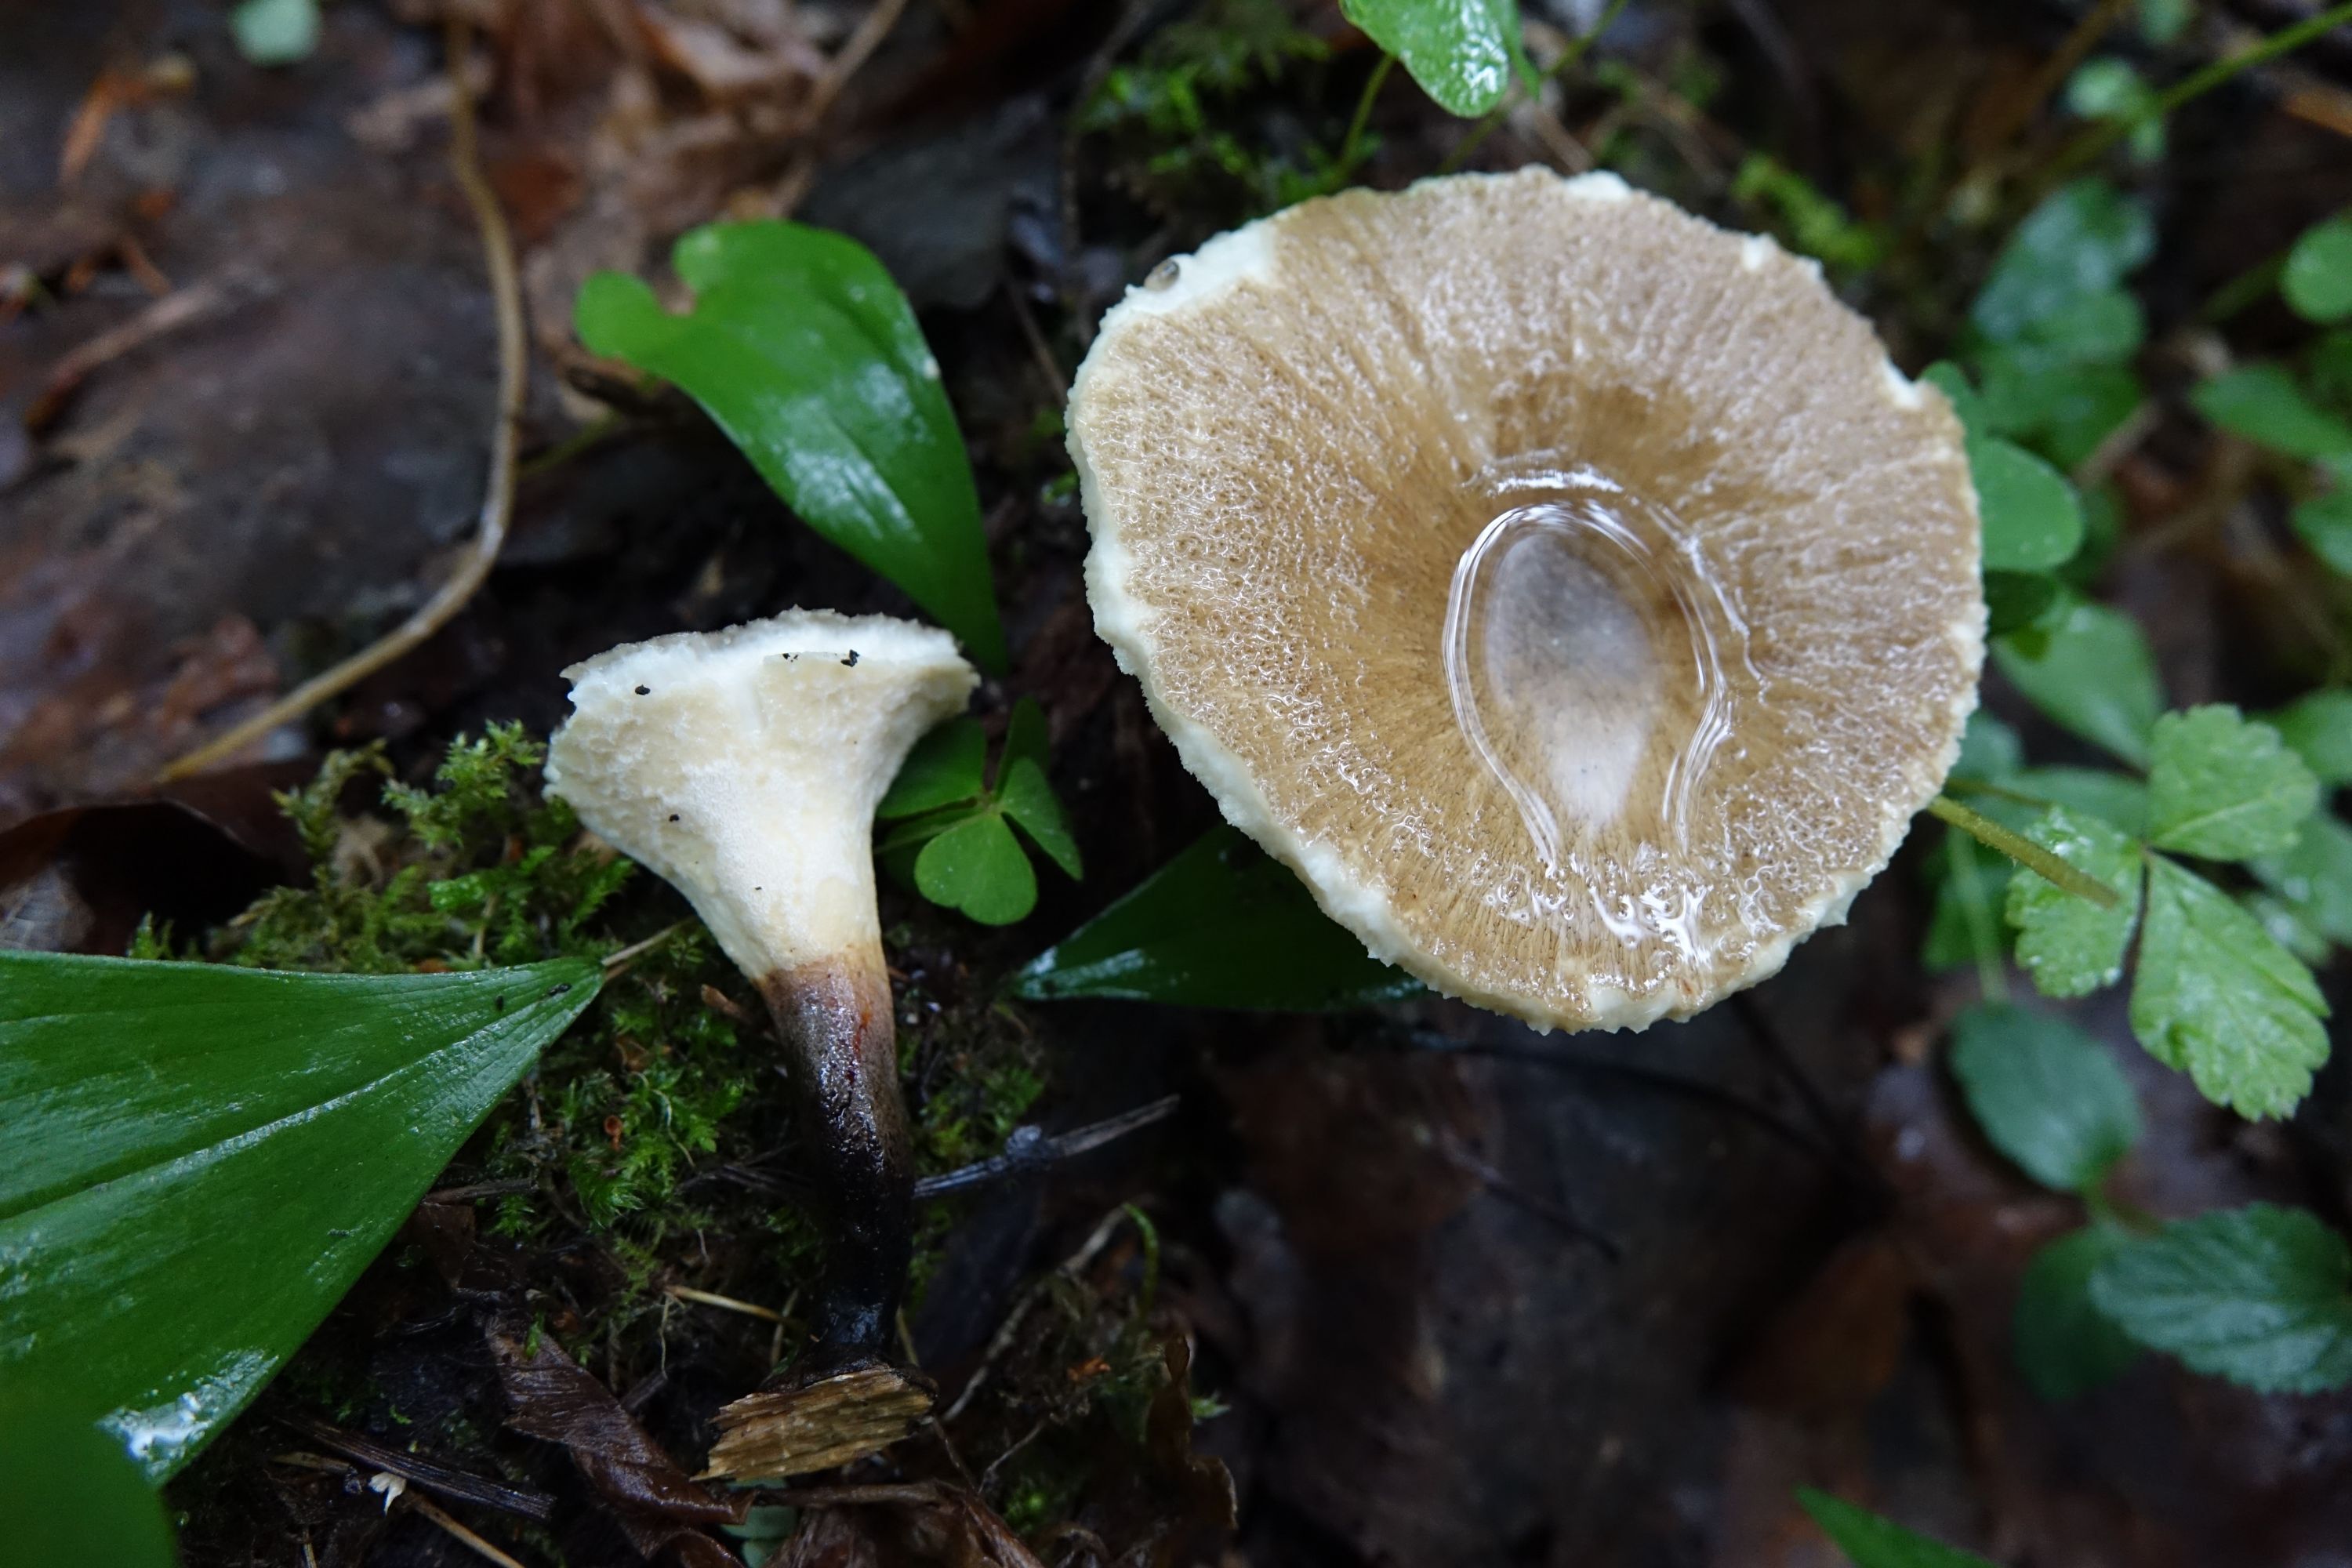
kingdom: Fungi
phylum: Basidiomycota
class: Agaricomycetes
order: Polyporales
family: Polyporaceae
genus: Cerioporus
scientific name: Cerioporus leptocephalus
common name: Blackfoot polypore
